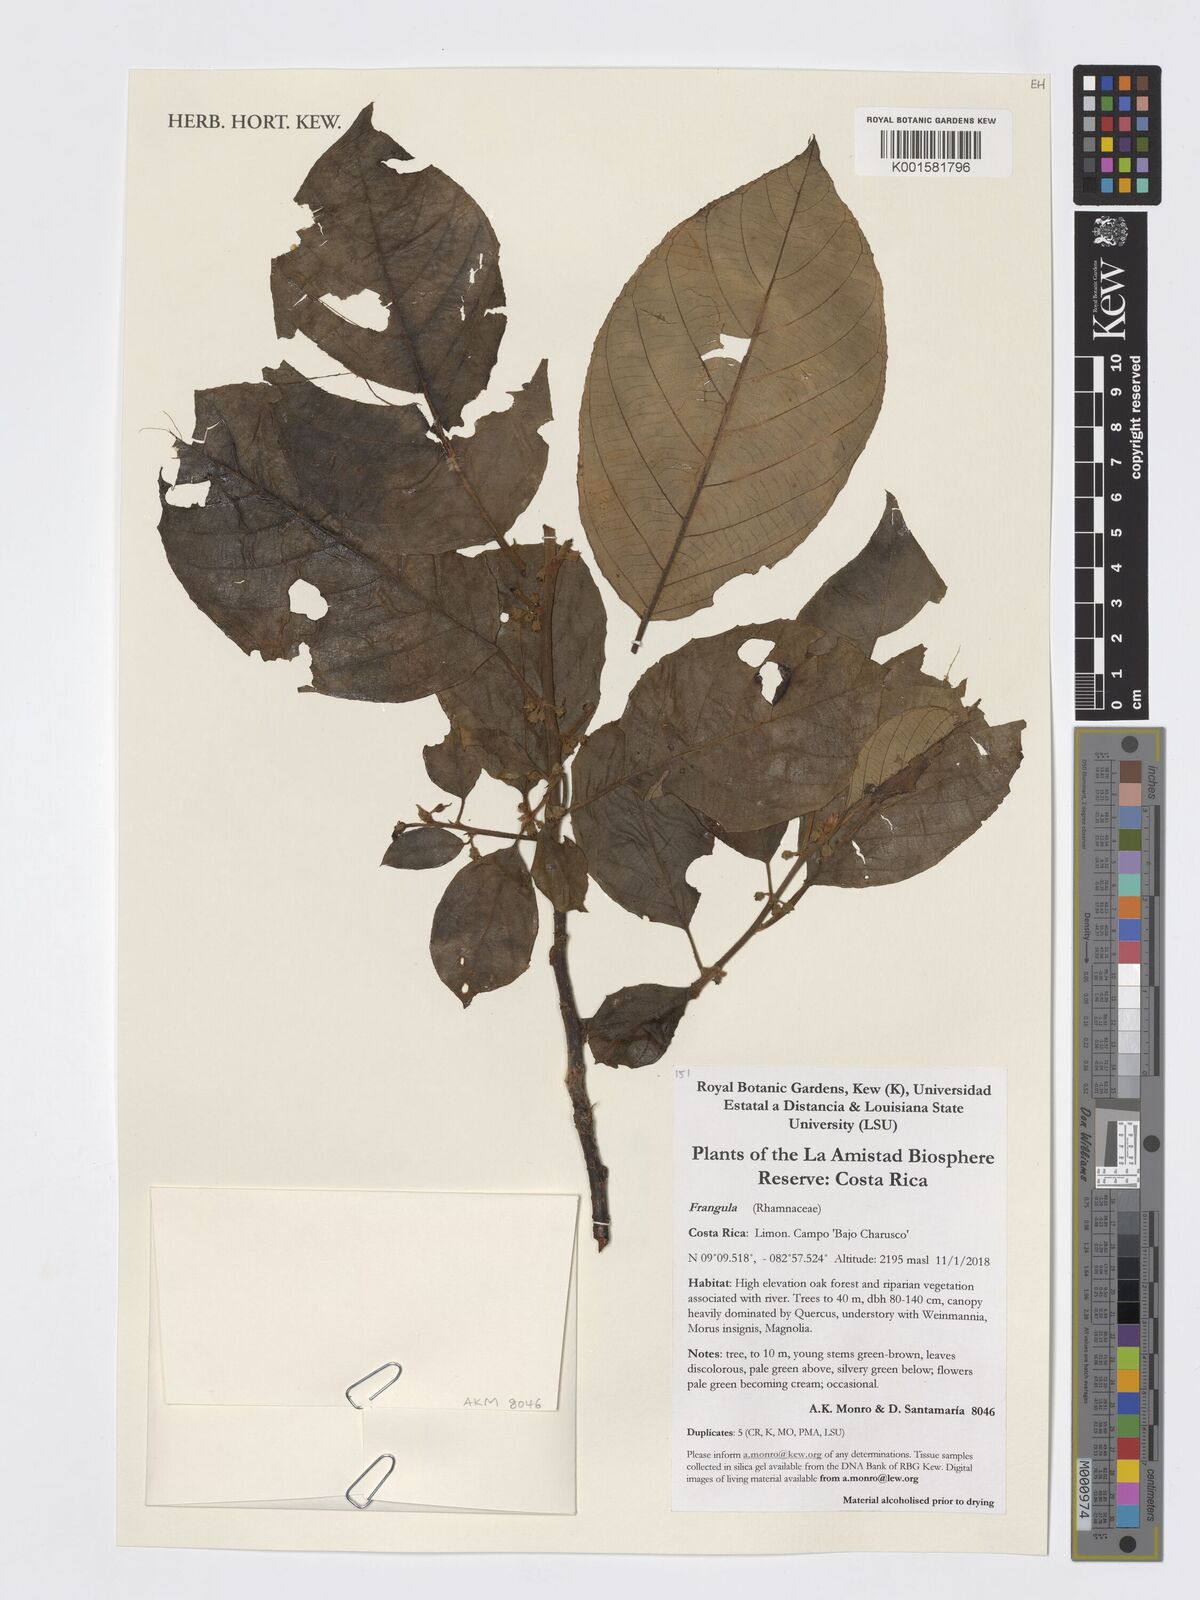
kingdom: Plantae
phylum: Tracheophyta
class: Magnoliopsida
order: Rosales
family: Rhamnaceae
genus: Frangula
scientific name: Frangula
